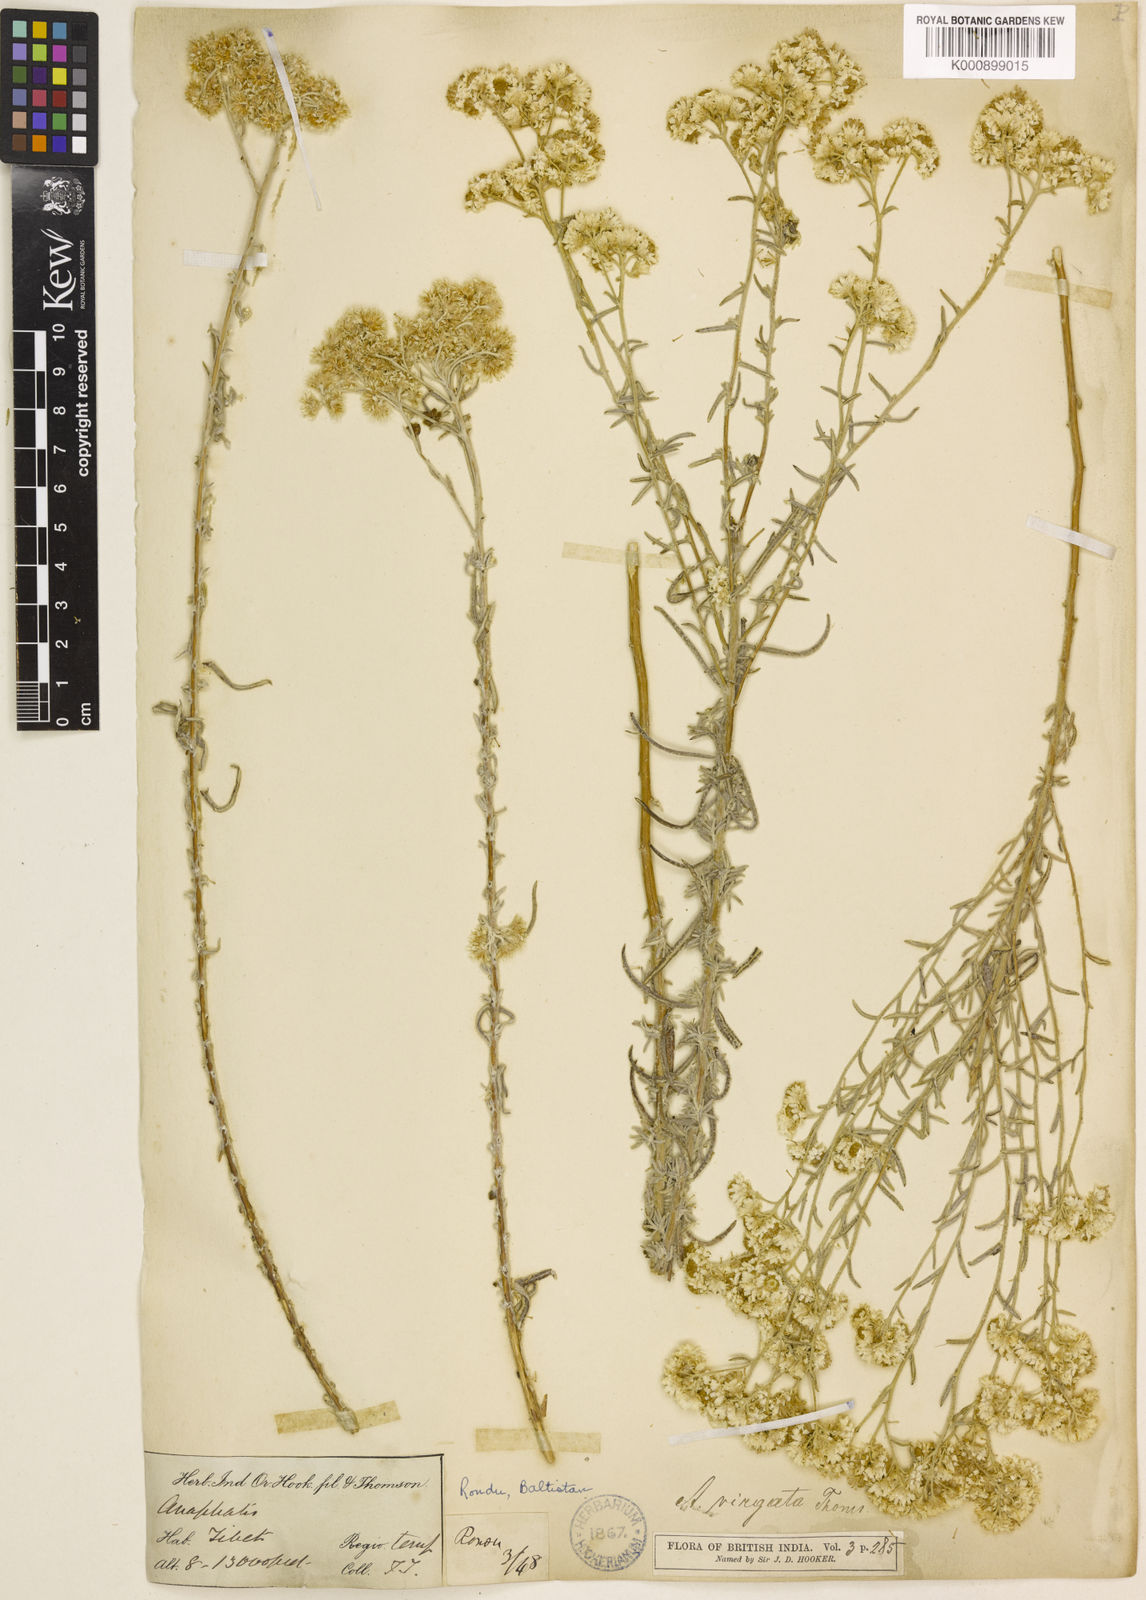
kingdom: Plantae
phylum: Tracheophyta
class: Magnoliopsida
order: Asterales
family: Asteraceae
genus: Anaphalis
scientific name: Anaphalis virgata
